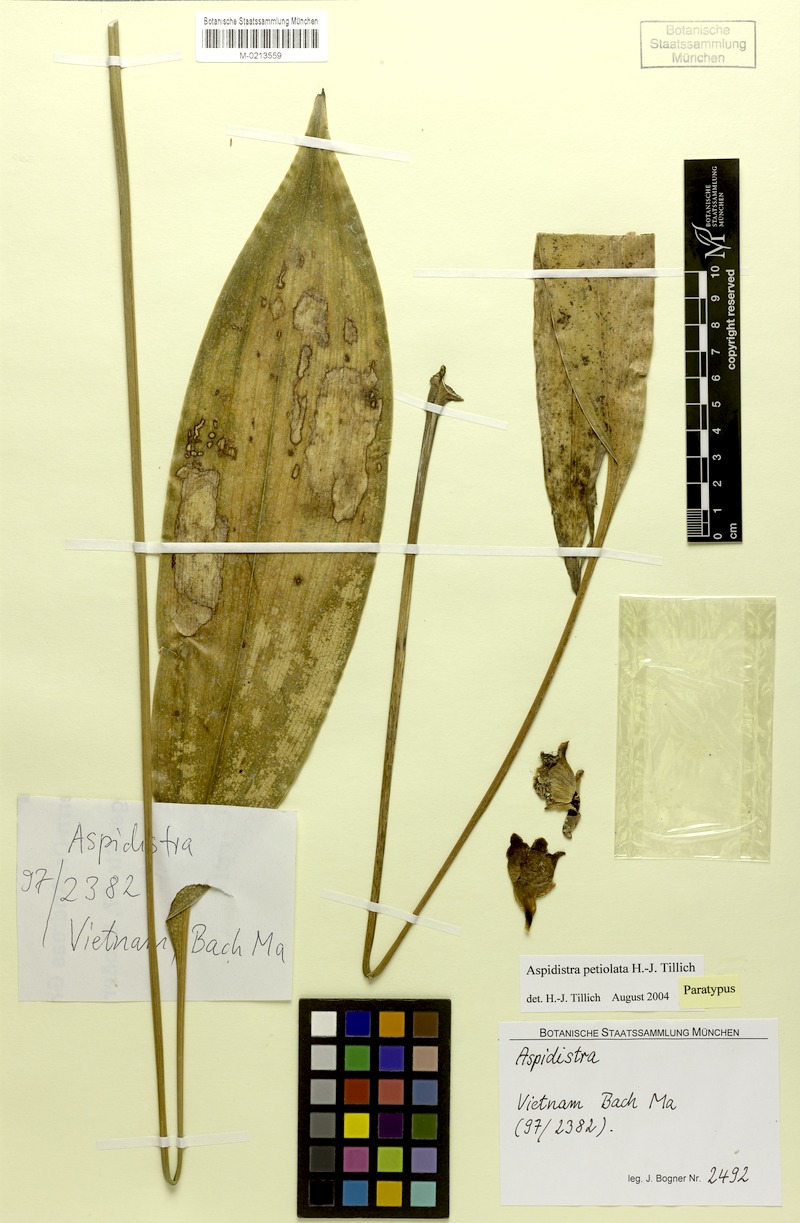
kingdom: Plantae
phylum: Tracheophyta
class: Liliopsida
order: Asparagales
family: Asparagaceae
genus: Aspidistra
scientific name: Aspidistra petiolata
